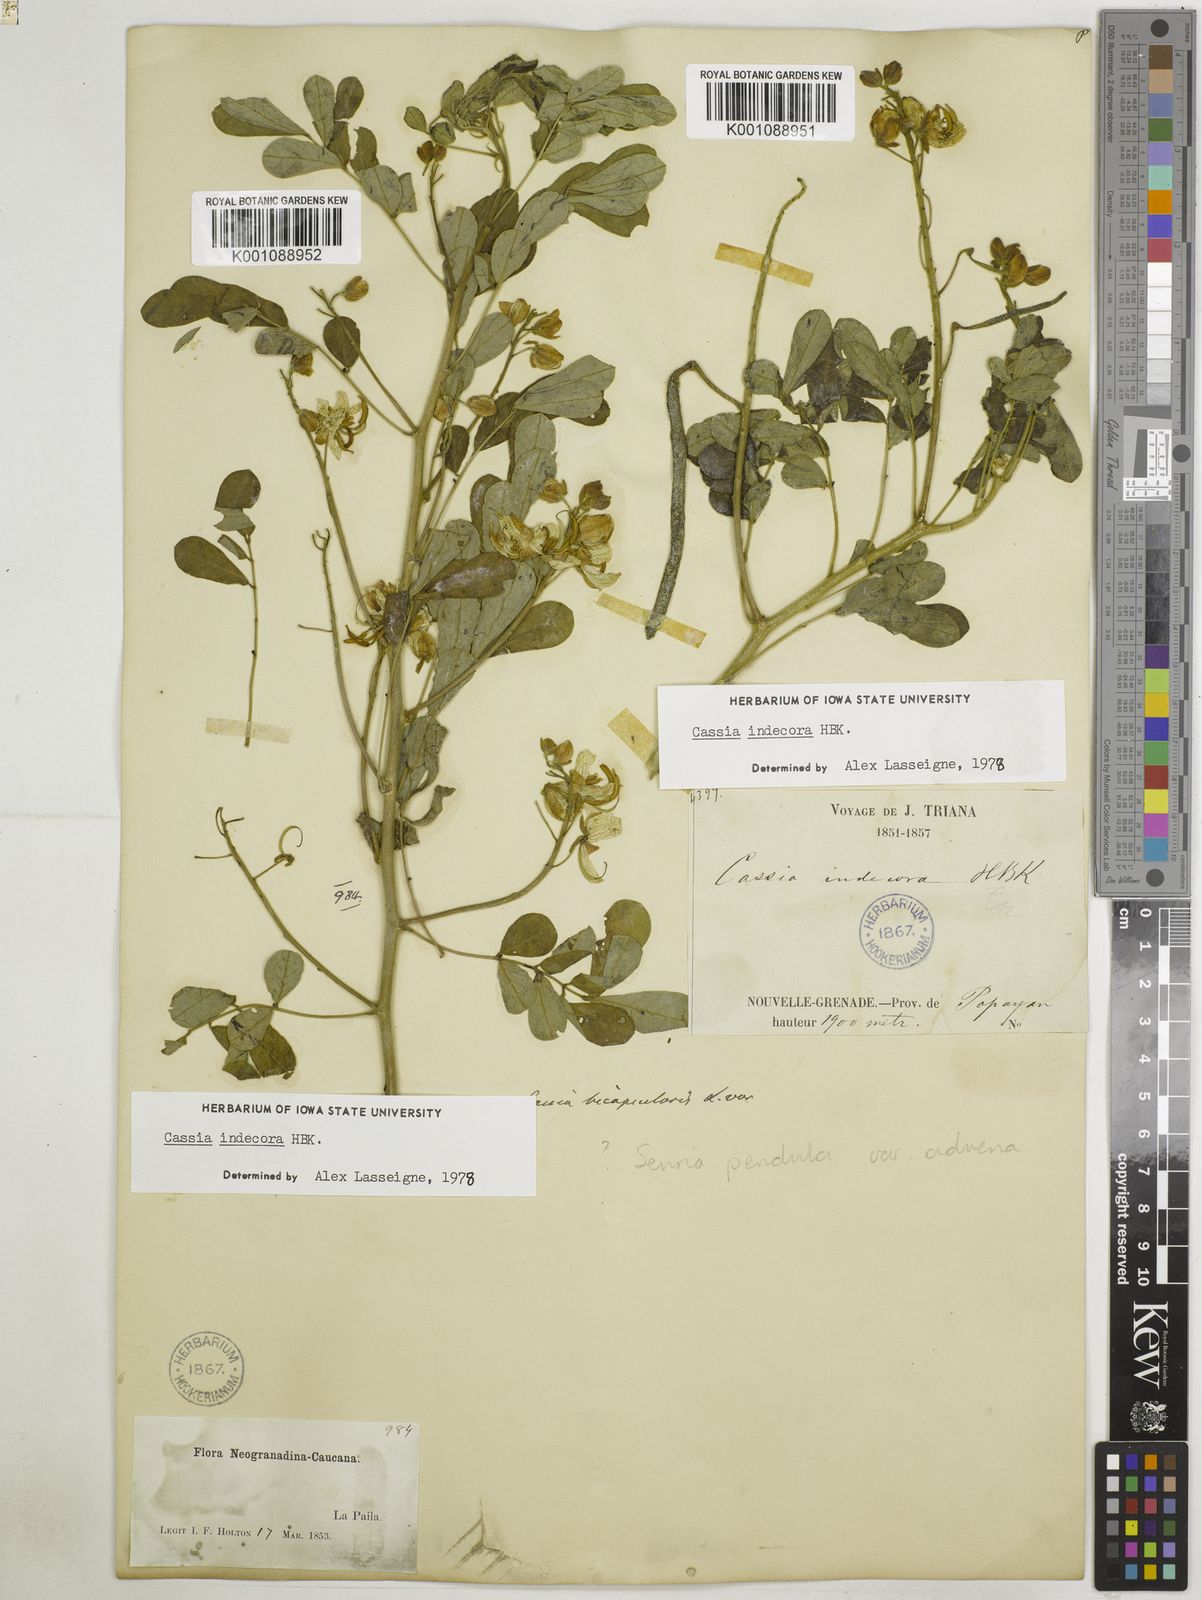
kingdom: Plantae
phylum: Tracheophyta
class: Magnoliopsida
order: Fabales
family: Fabaceae
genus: Senna
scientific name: Senna pendula
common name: Easter cassia
